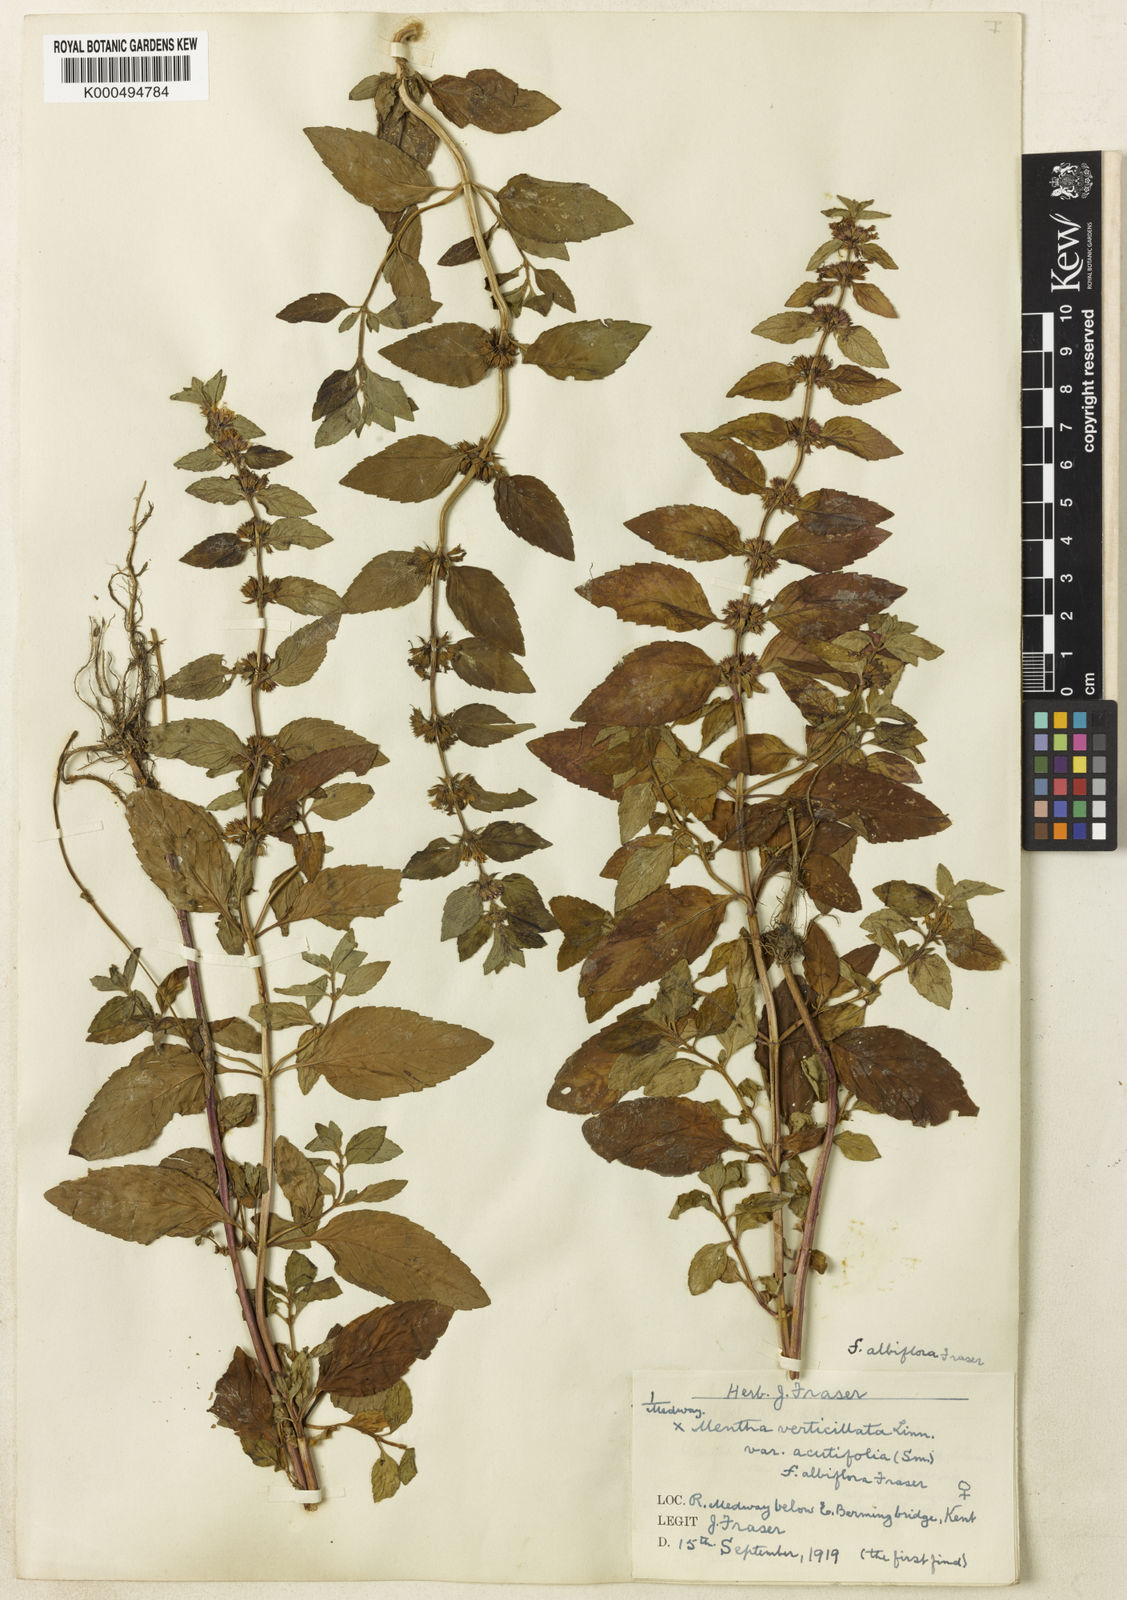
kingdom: Plantae
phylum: Tracheophyta
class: Magnoliopsida
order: Lamiales
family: Lamiaceae
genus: Mentha
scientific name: Mentha verticillata
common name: Mint
